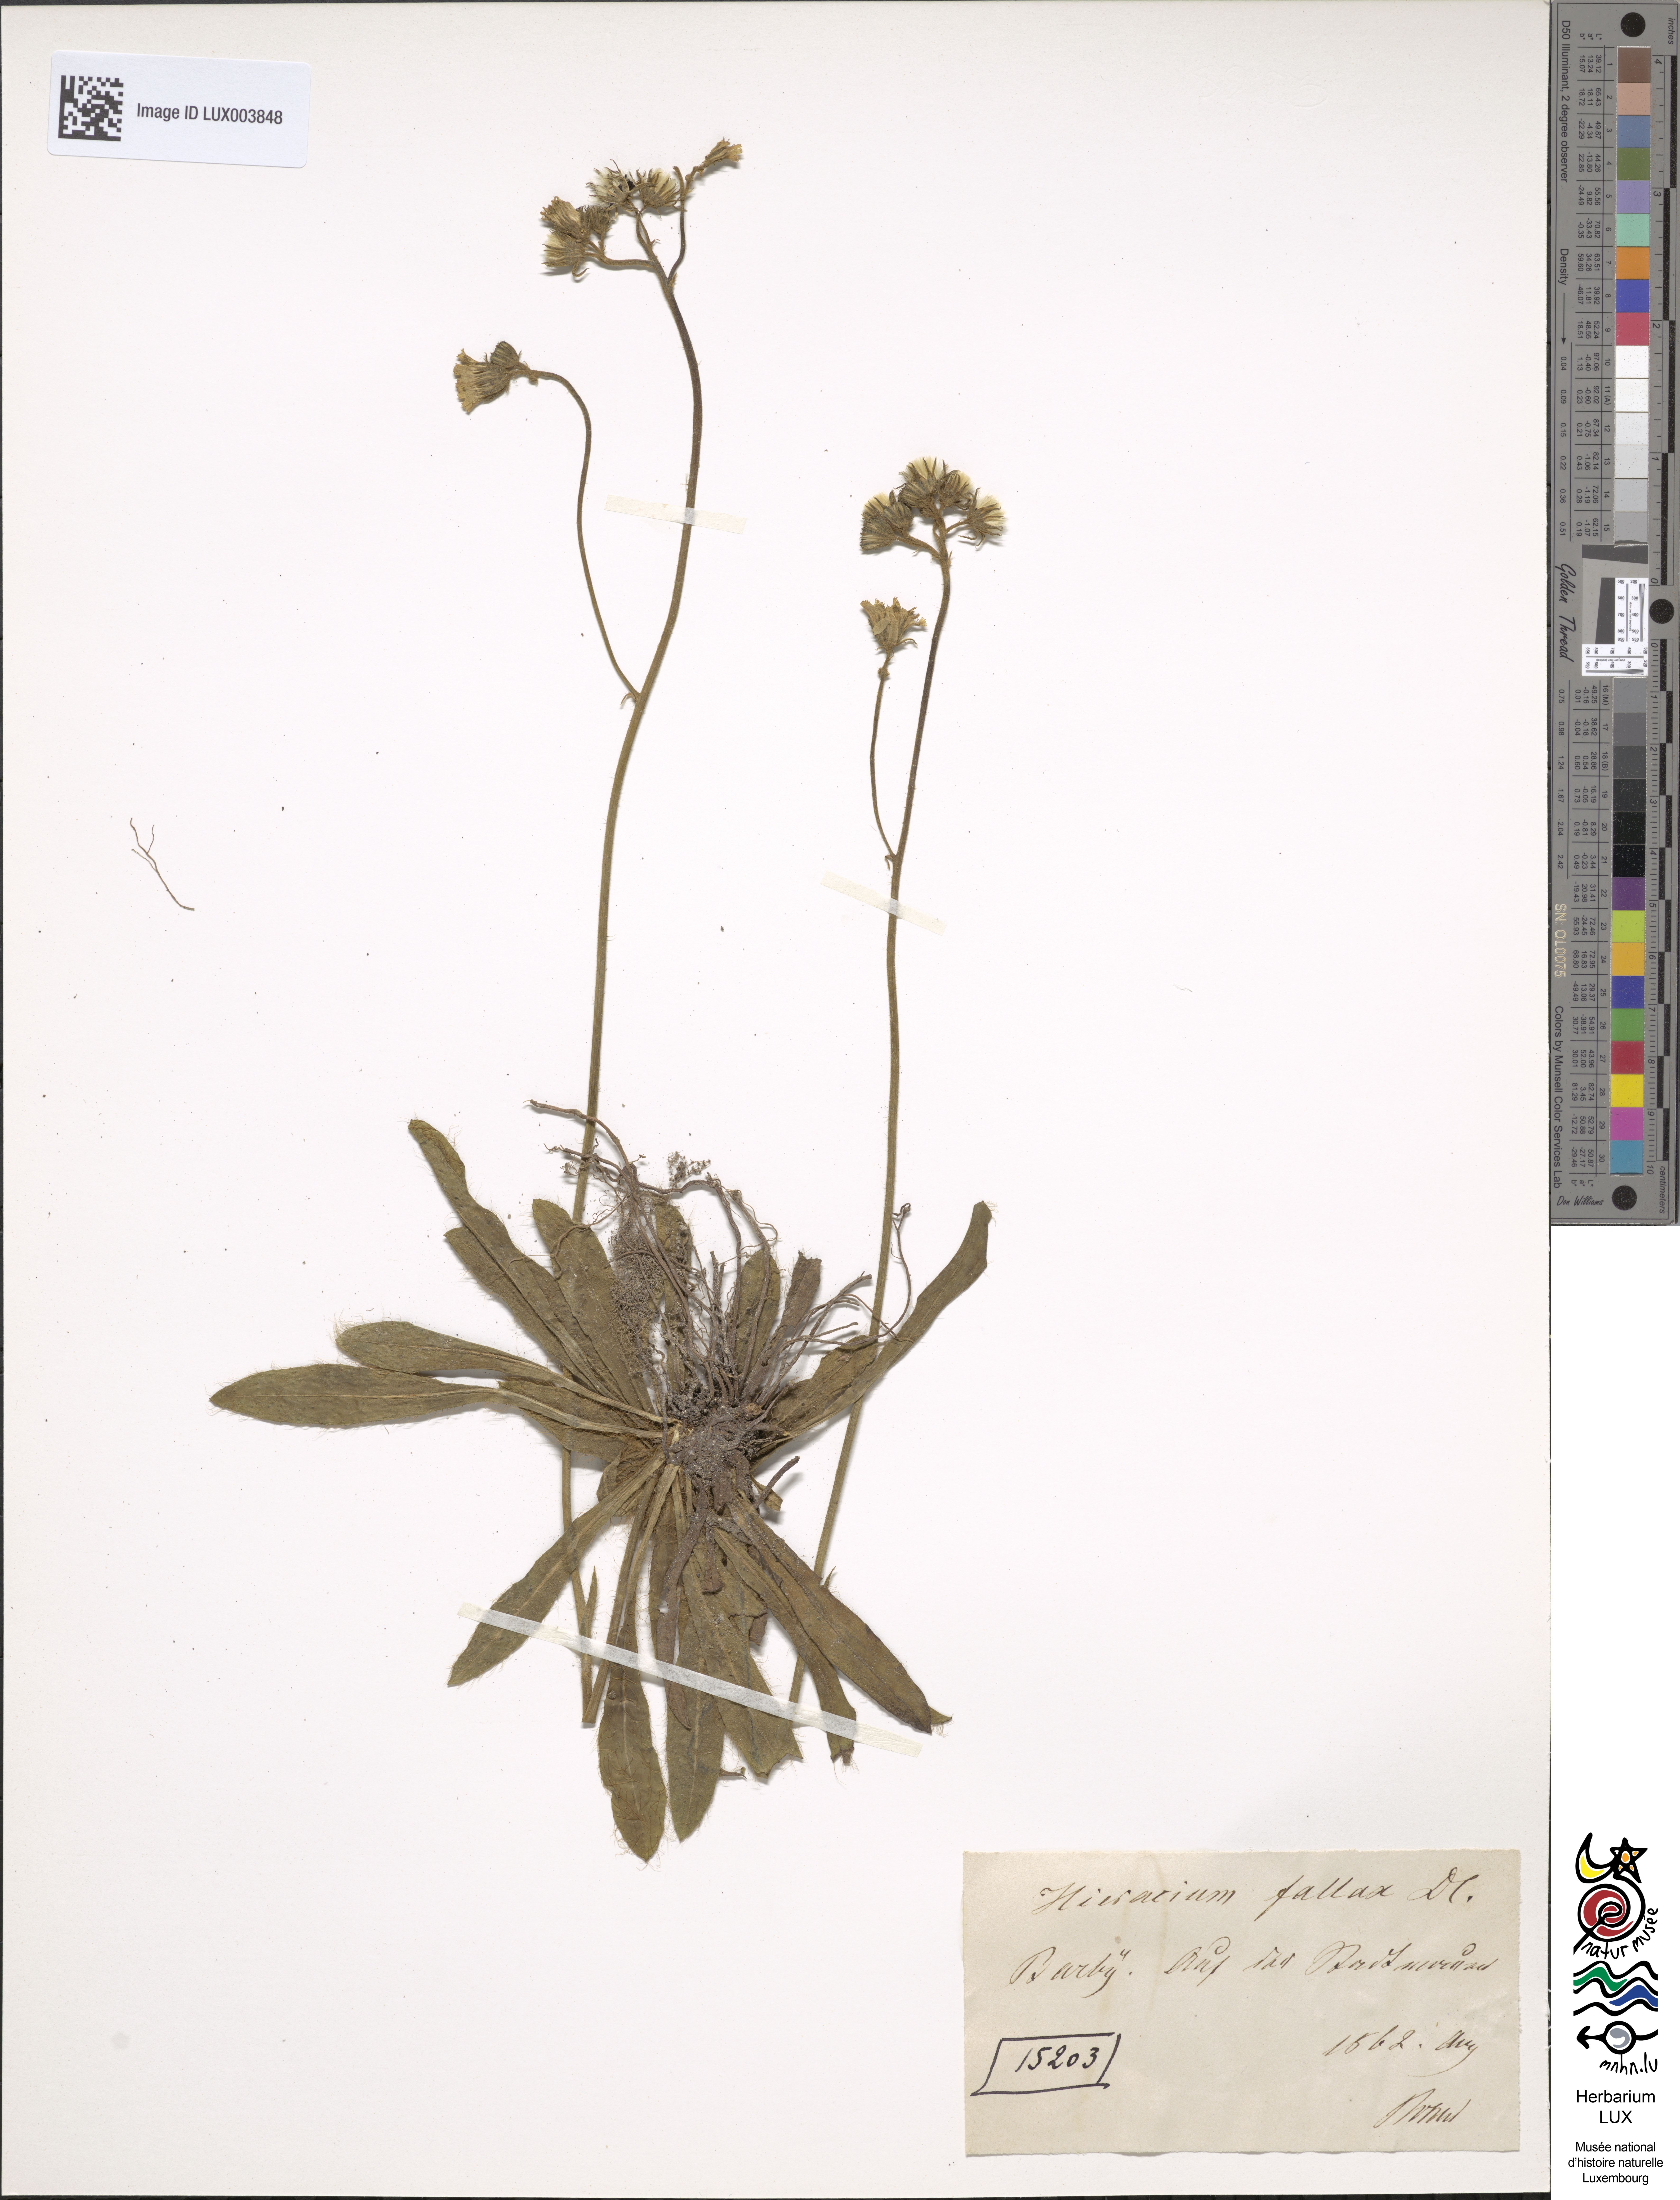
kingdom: Plantae
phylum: Tracheophyta
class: Magnoliopsida
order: Asterales
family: Asteraceae
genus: Pilosella
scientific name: Pilosella fallax
